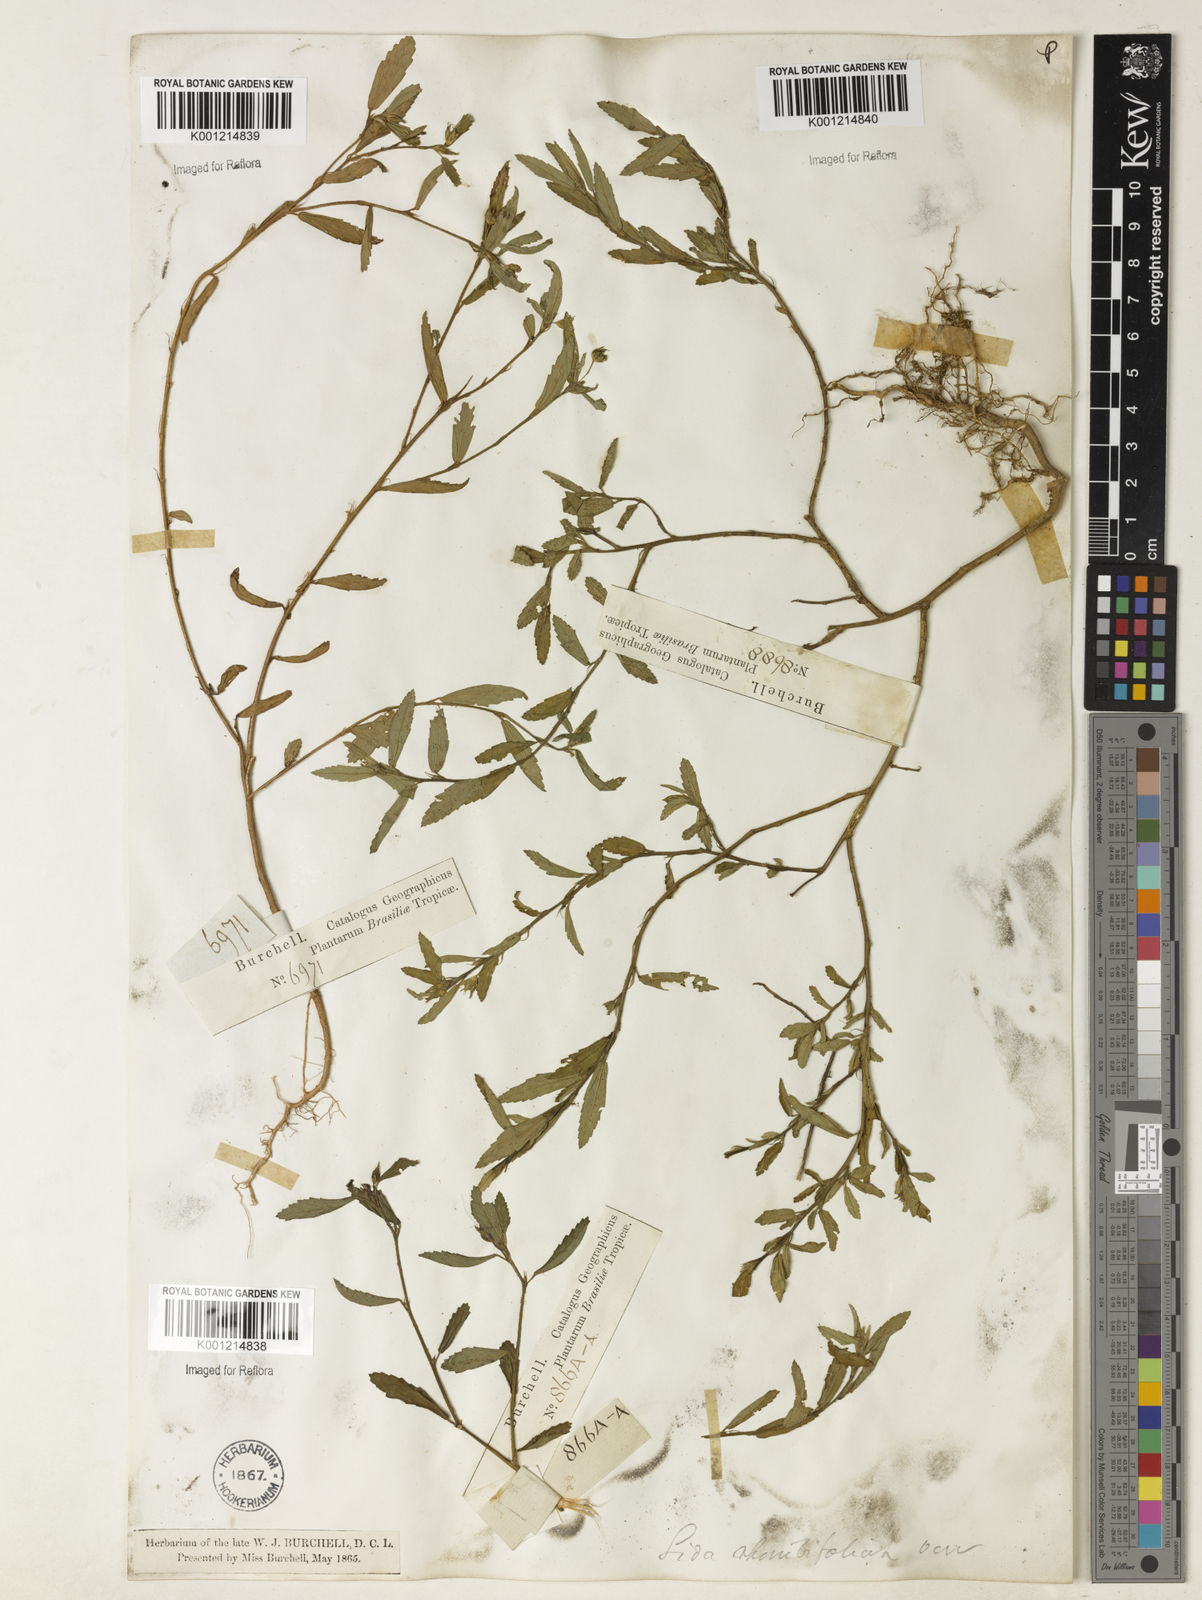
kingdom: Plantae
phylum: Tracheophyta
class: Magnoliopsida
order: Malvales
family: Malvaceae
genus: Sida
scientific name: Sida rhombifolia
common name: Queensland-hemp
